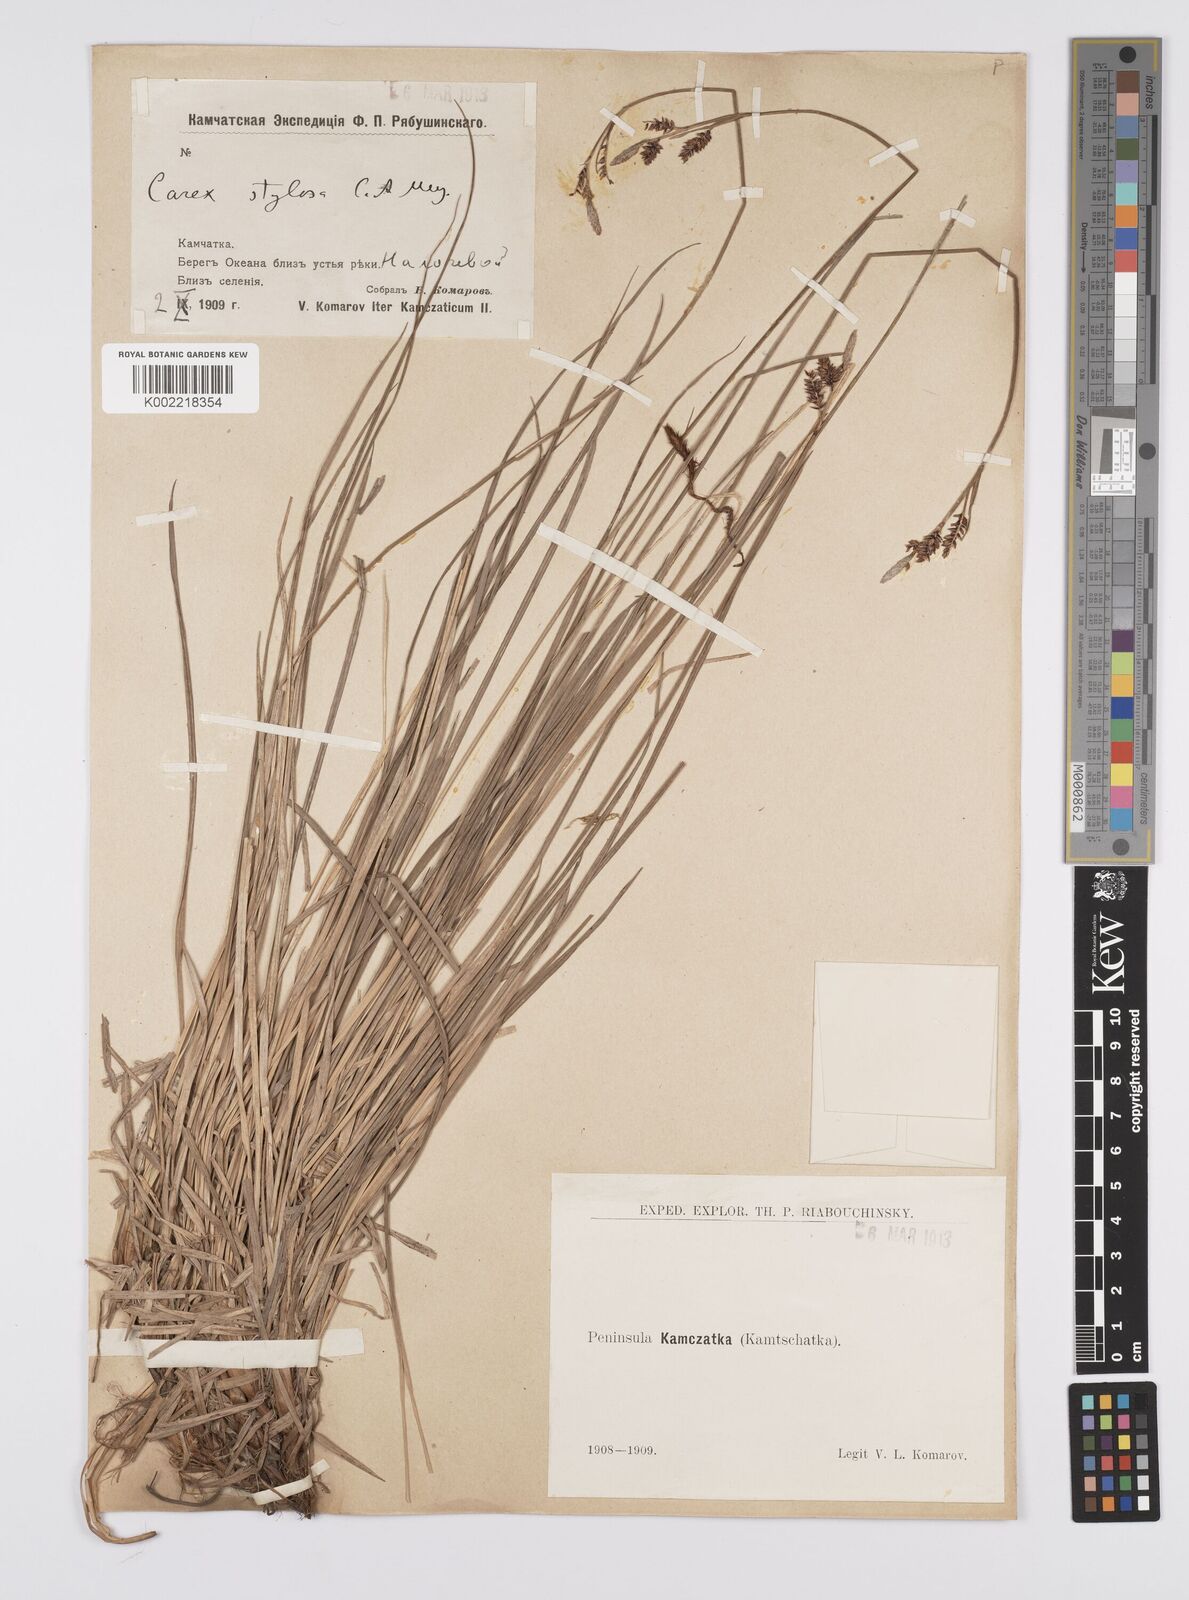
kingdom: Plantae
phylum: Tracheophyta
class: Liliopsida
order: Poales
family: Cyperaceae
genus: Carex
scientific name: Carex stylosa
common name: Long-styled sedge
